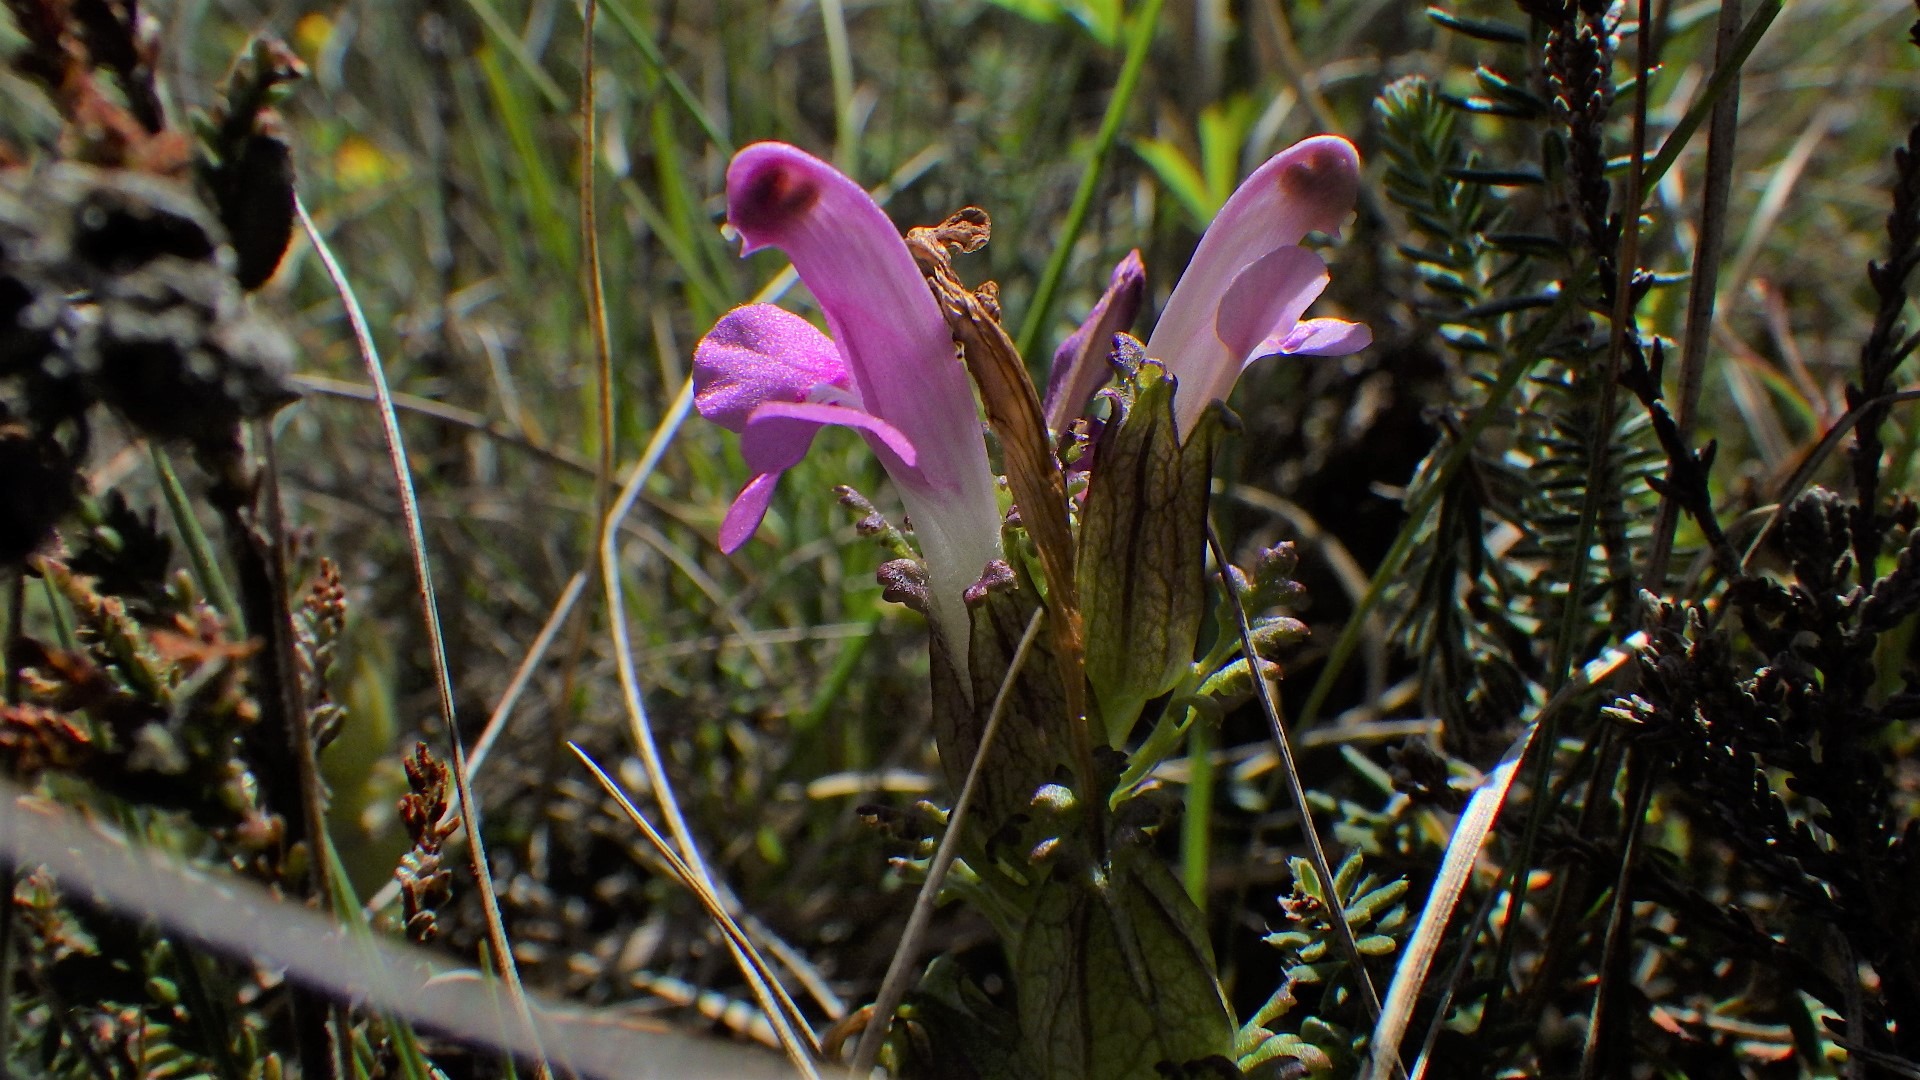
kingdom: Plantae
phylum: Tracheophyta
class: Magnoliopsida
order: Lamiales
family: Orobanchaceae
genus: Pedicularis
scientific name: Pedicularis palustris
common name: Eng-troldurt
